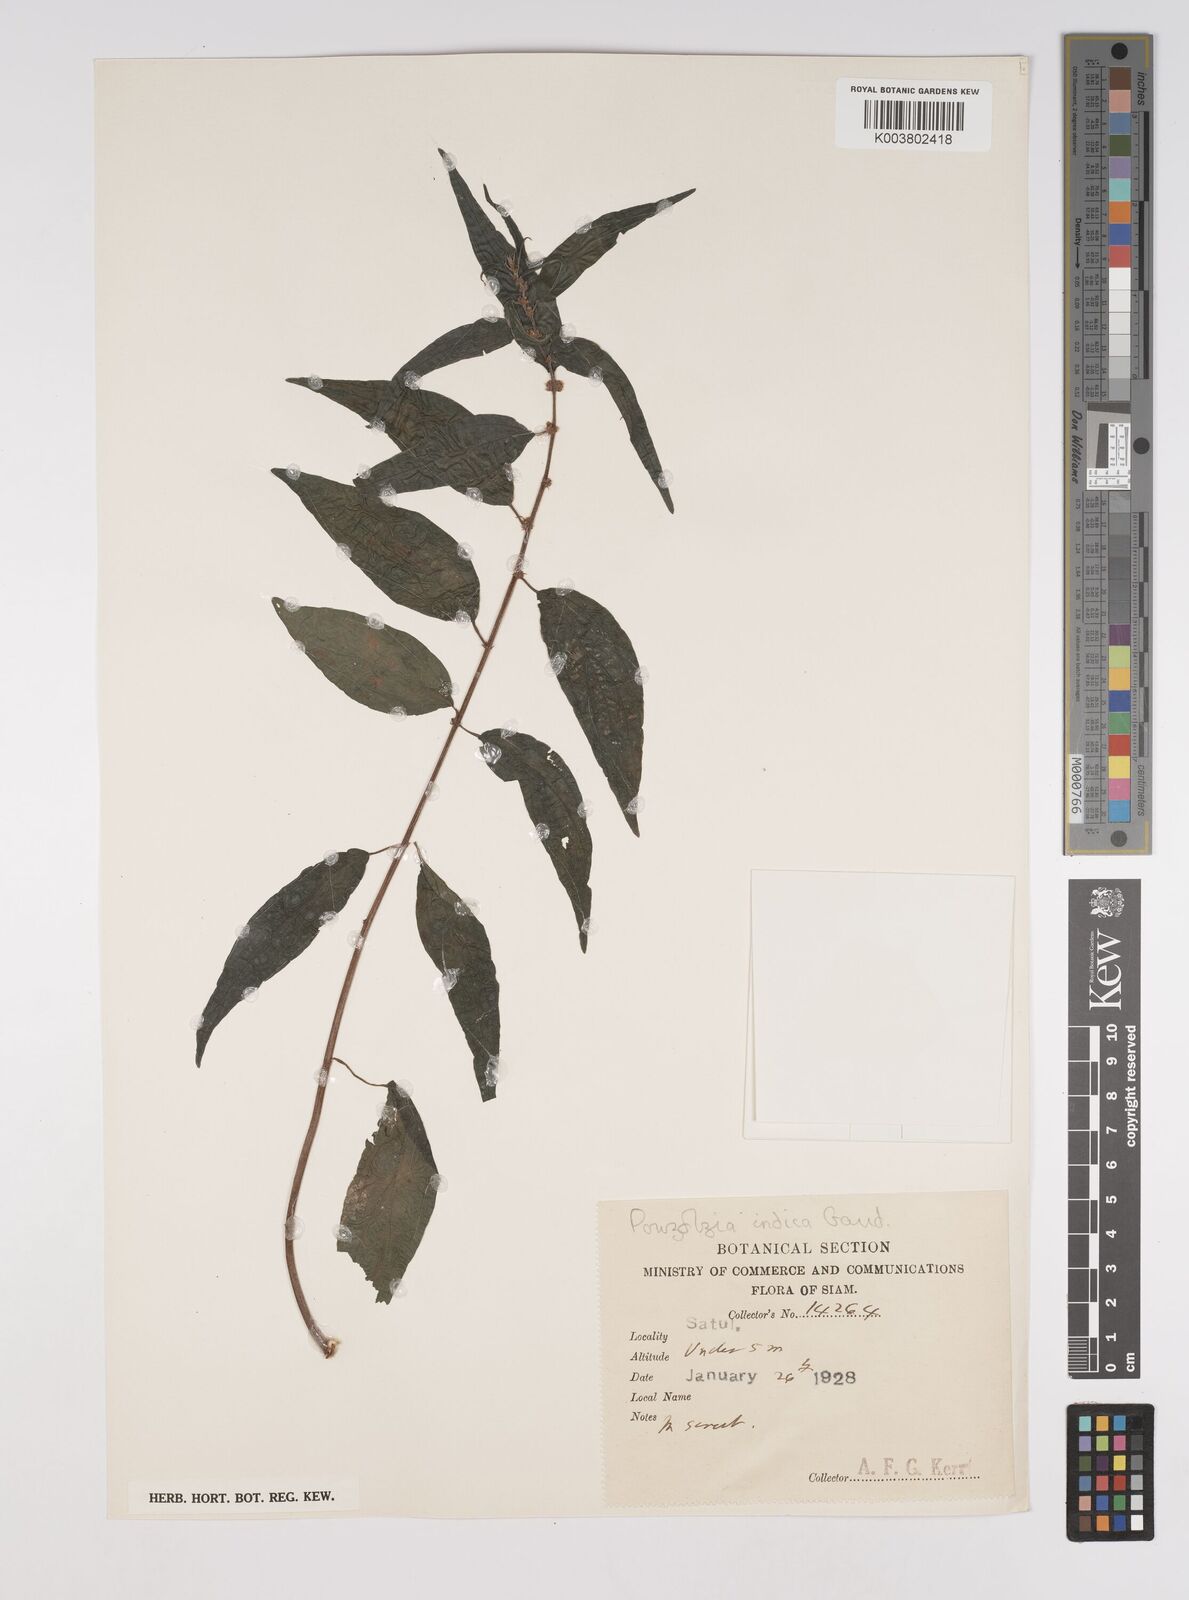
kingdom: Plantae
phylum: Tracheophyta
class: Magnoliopsida
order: Rosales
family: Urticaceae
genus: Pouzolzia
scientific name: Pouzolzia zeylanica
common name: Graceful pouzolzsbush
